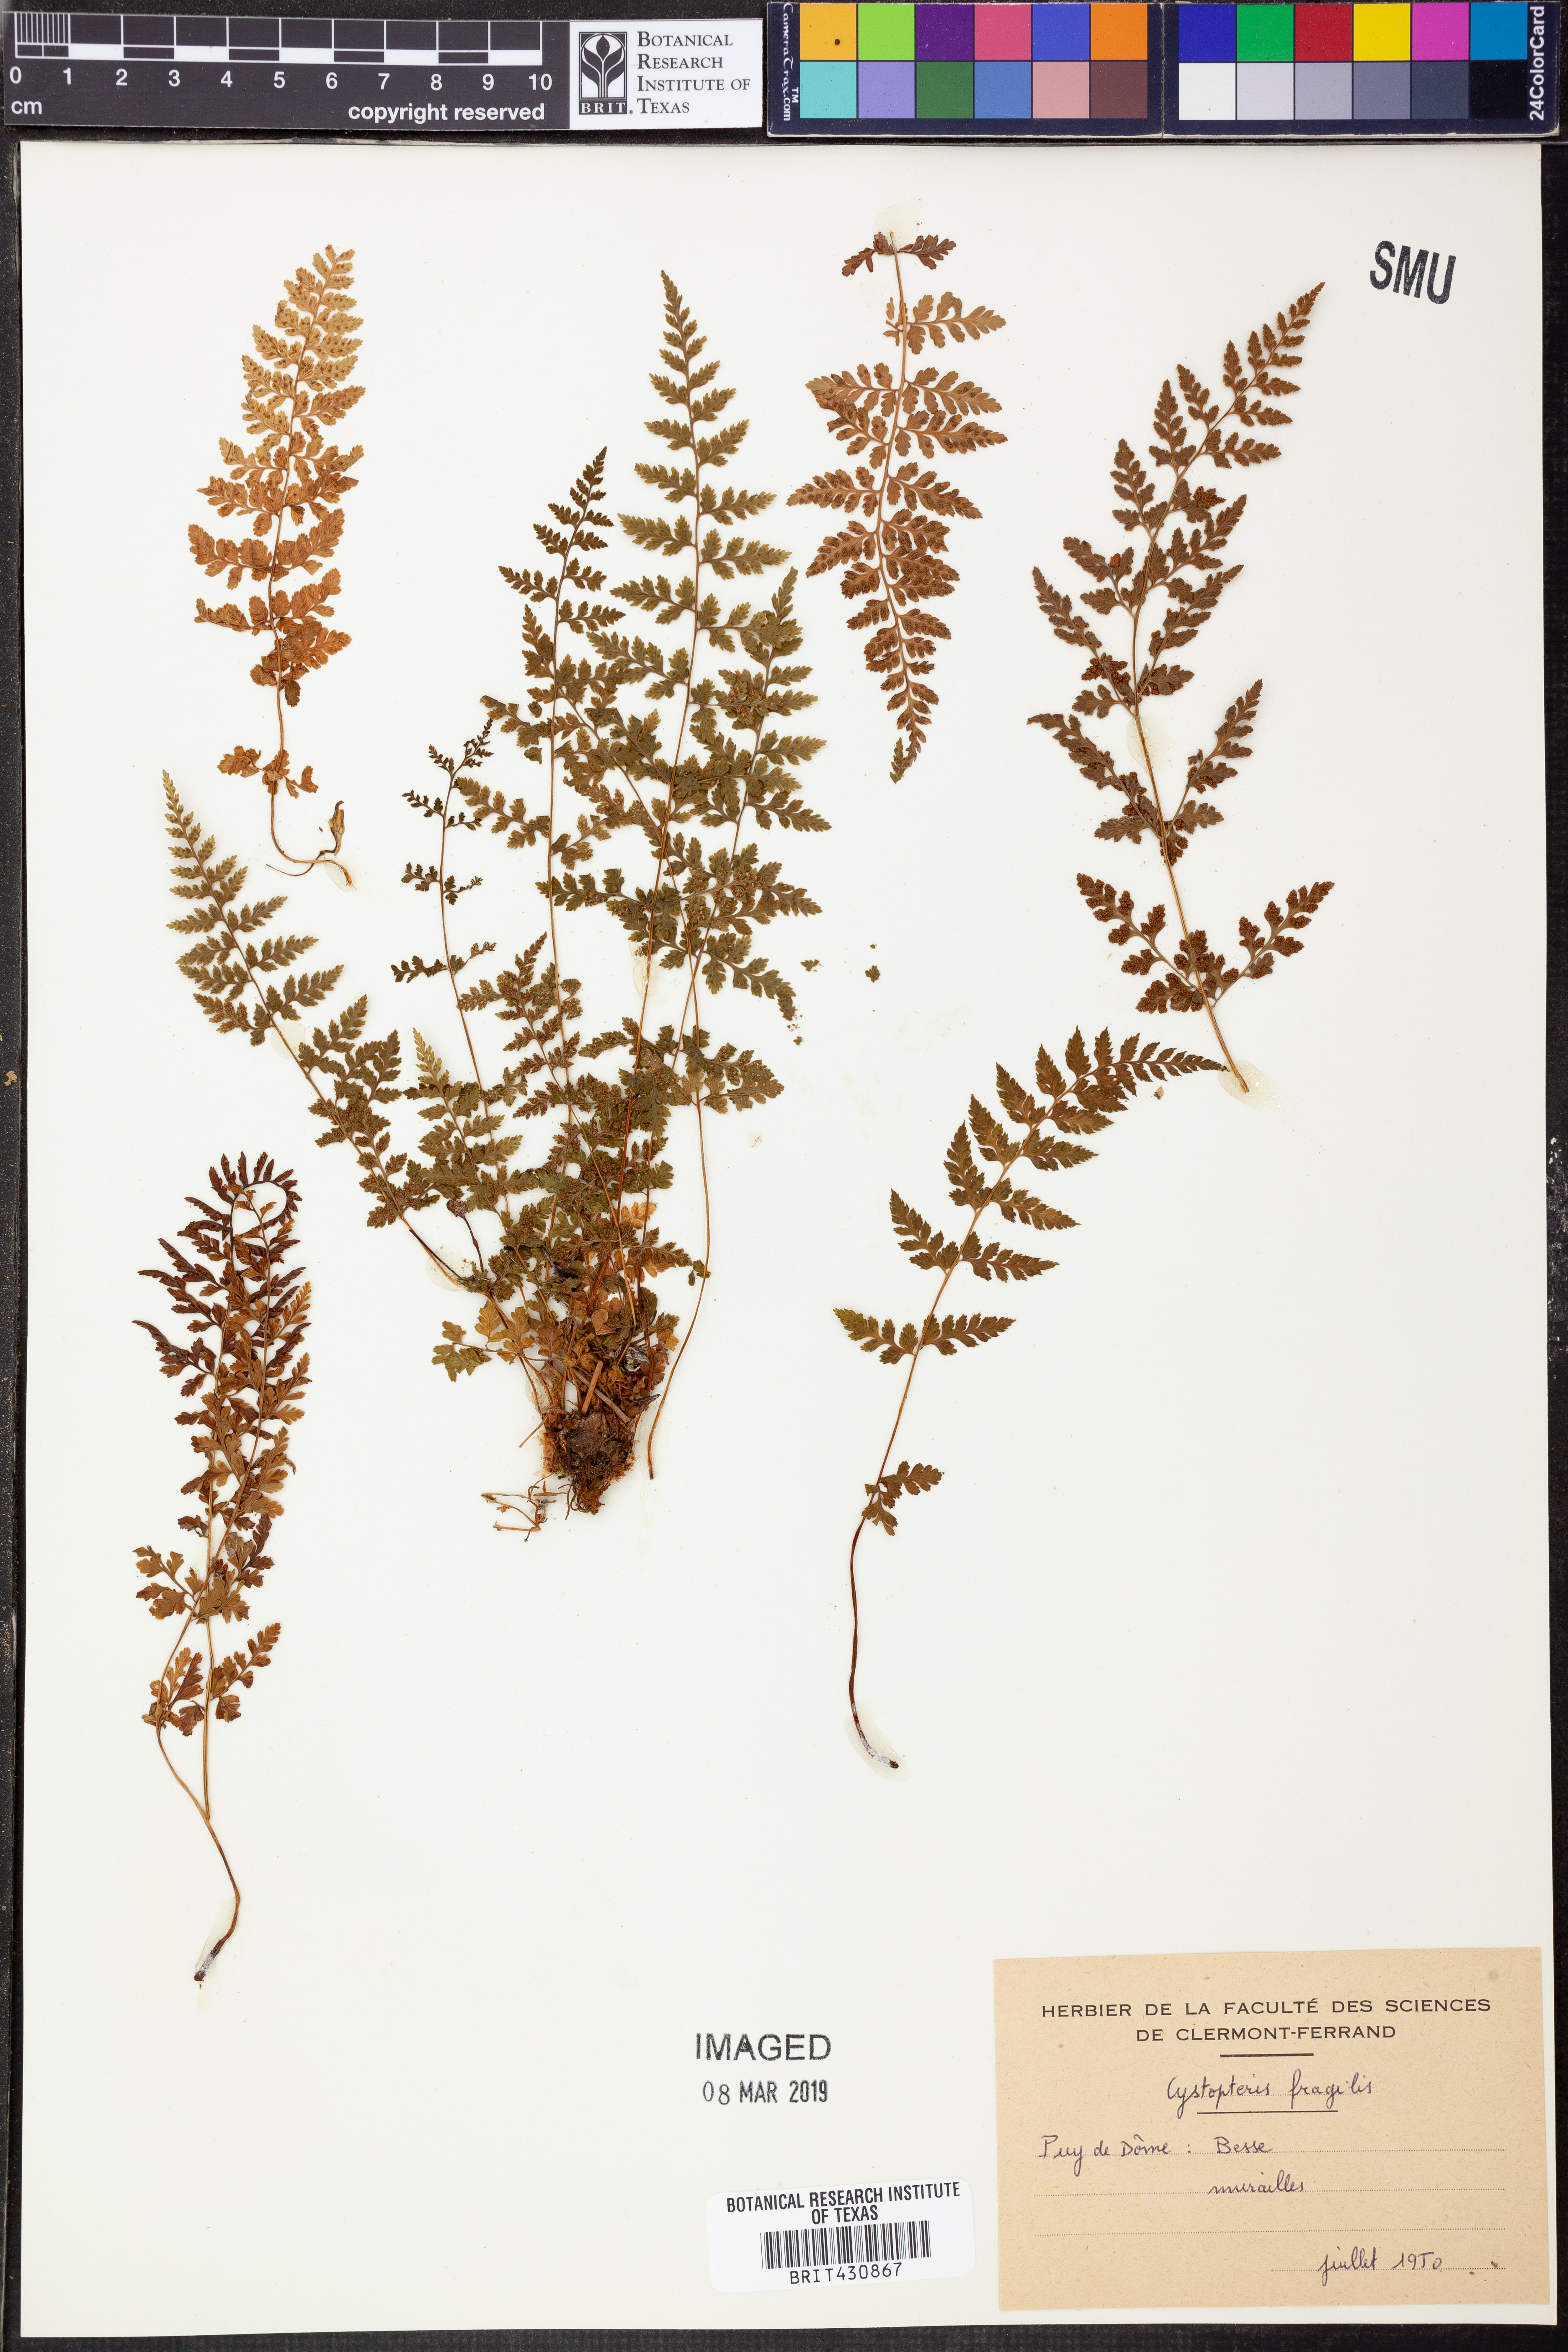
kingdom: Plantae
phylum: Tracheophyta
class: Polypodiopsida
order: Polypodiales
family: Cystopteridaceae
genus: Cystopteris
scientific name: Cystopteris fragilis
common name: Brittle bladder fern
